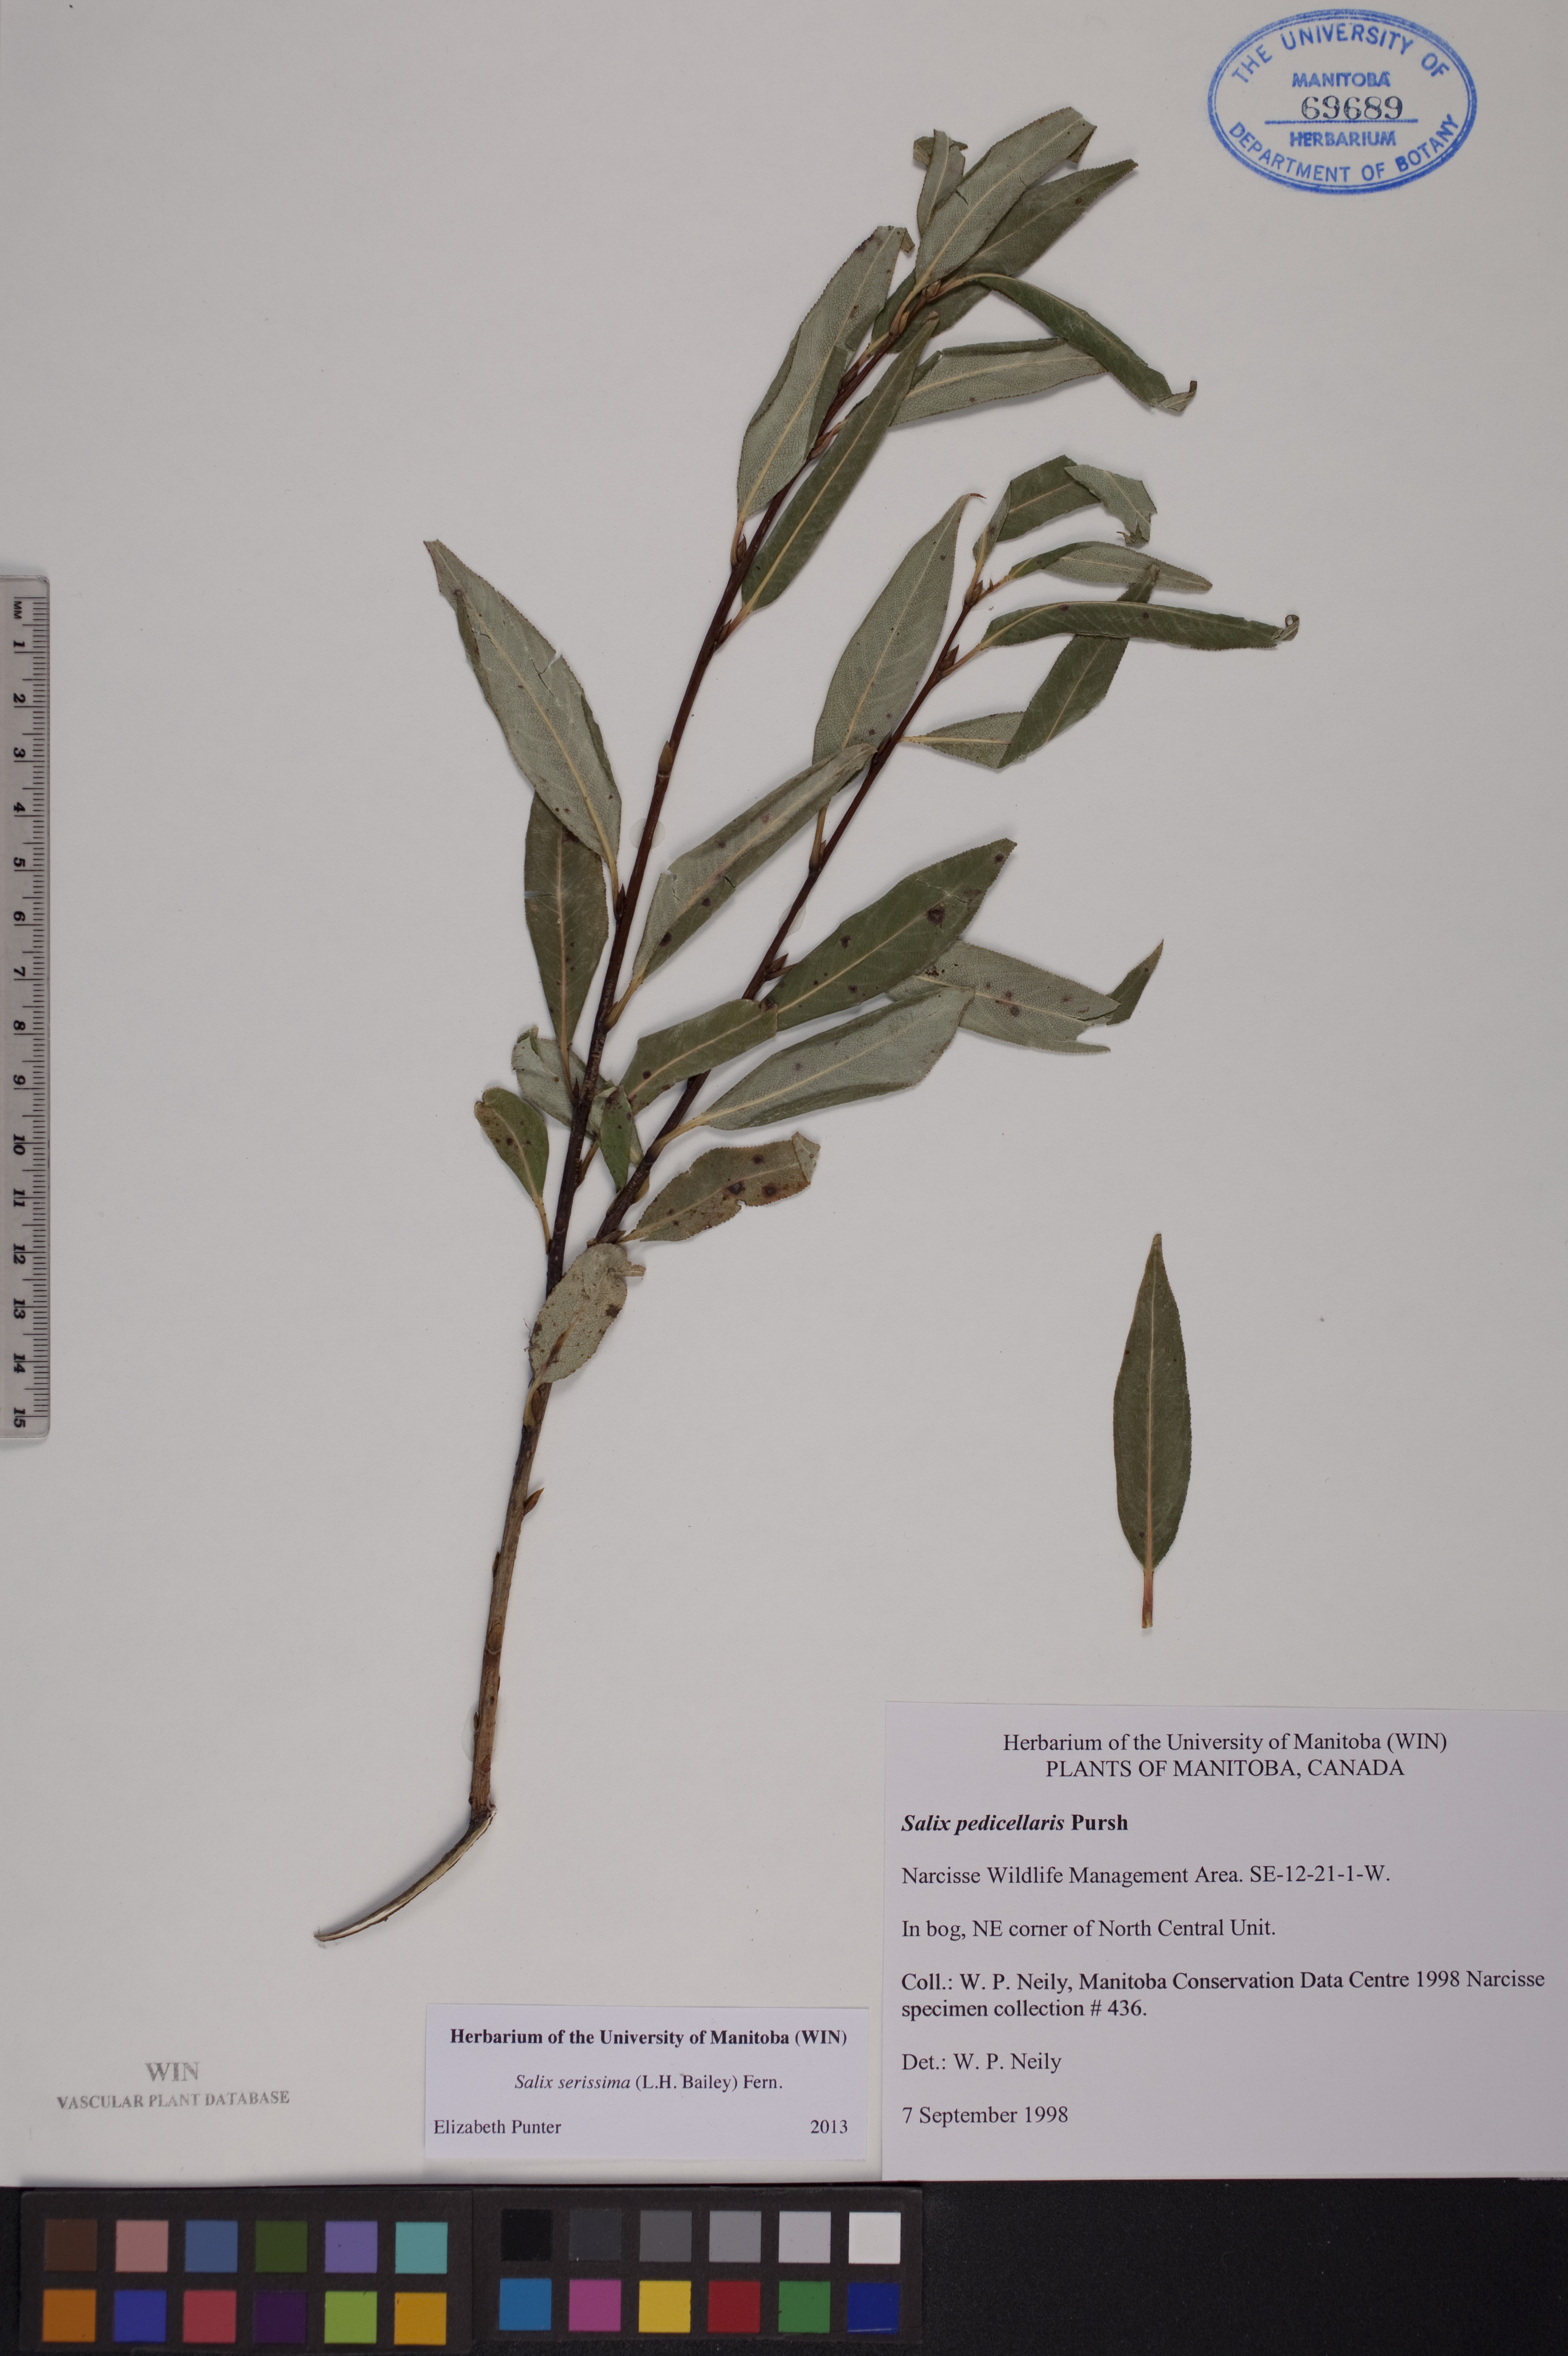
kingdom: Plantae
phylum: Tracheophyta
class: Magnoliopsida
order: Malpighiales
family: Salicaceae
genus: Salix
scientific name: Salix serissima
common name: Autumn willow
